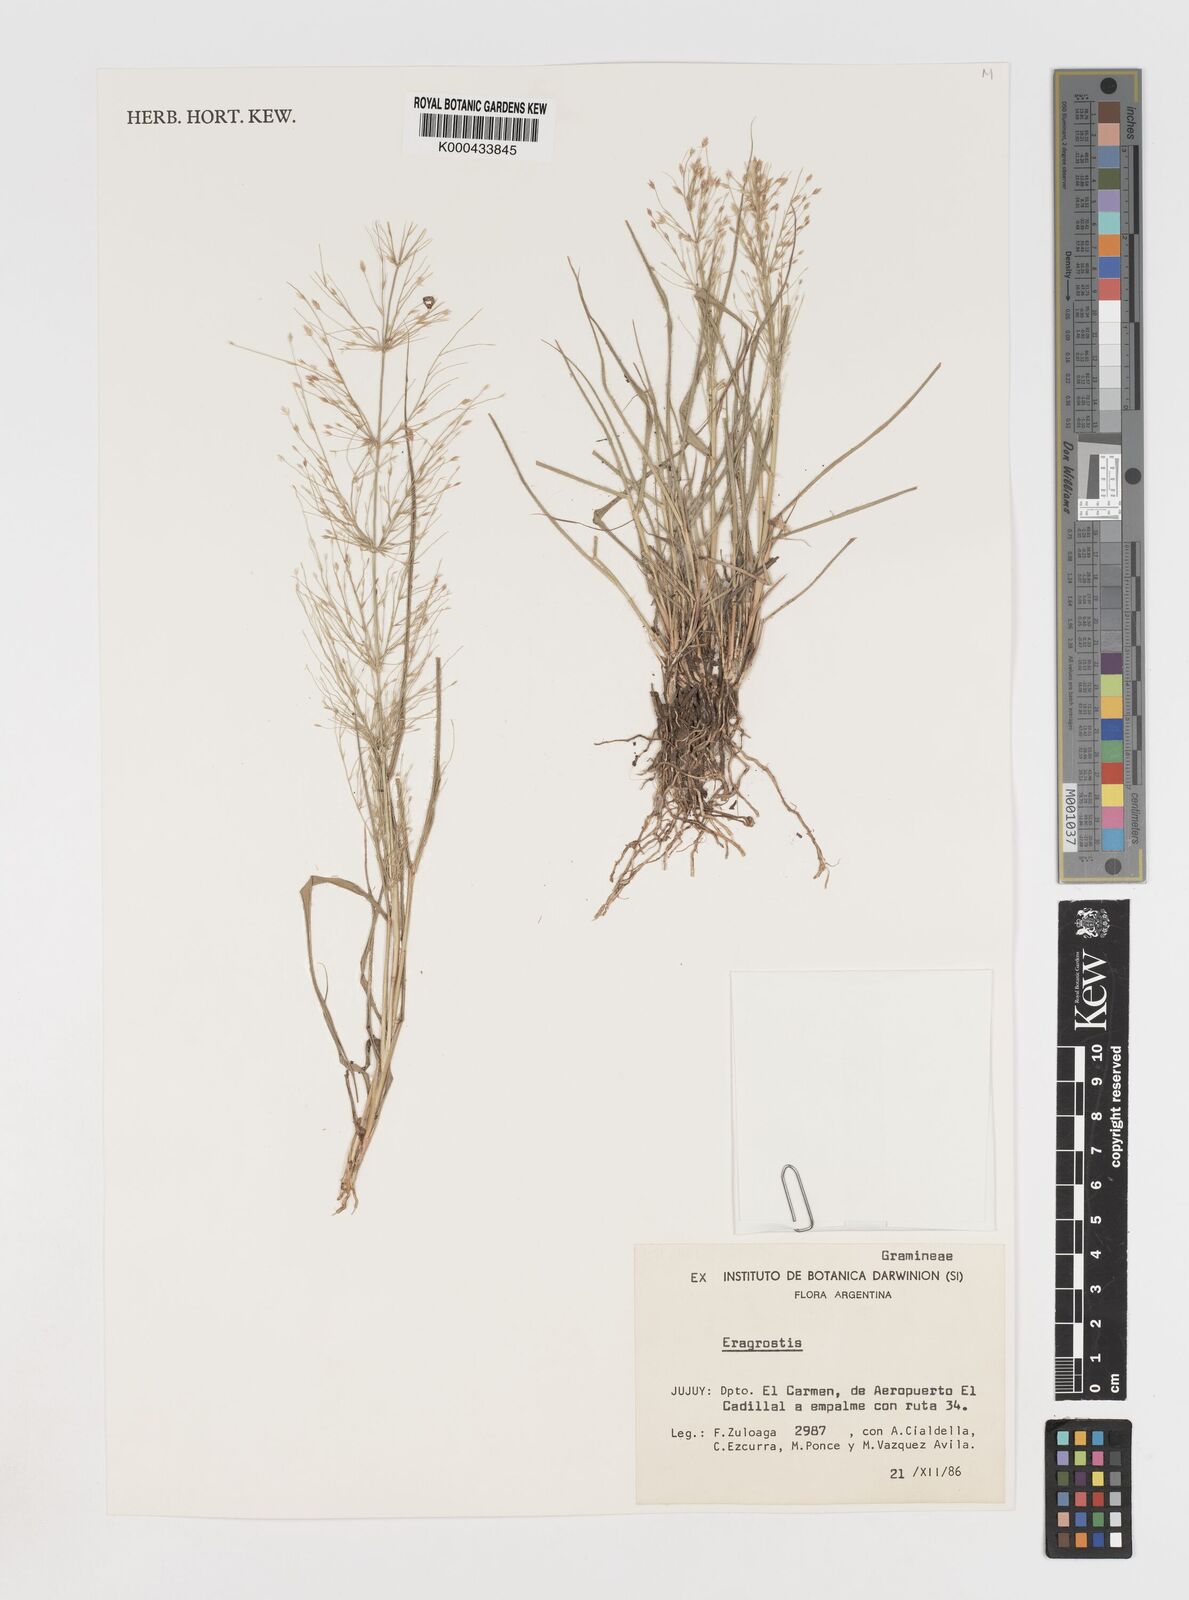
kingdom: Plantae
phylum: Tracheophyta
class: Liliopsida
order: Poales
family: Poaceae
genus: Eragrostis
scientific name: Eragrostis orthoclada
